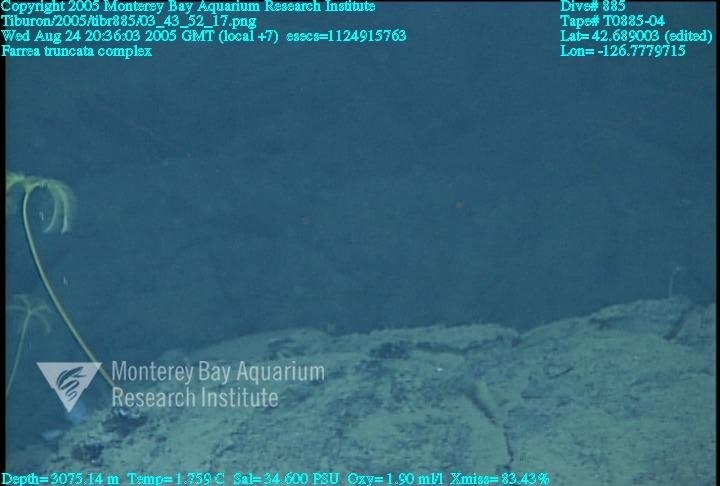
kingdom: Animalia
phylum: Porifera
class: Hexactinellida
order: Sceptrulophora
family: Farreidae
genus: Farrea
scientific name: Farrea truncata
